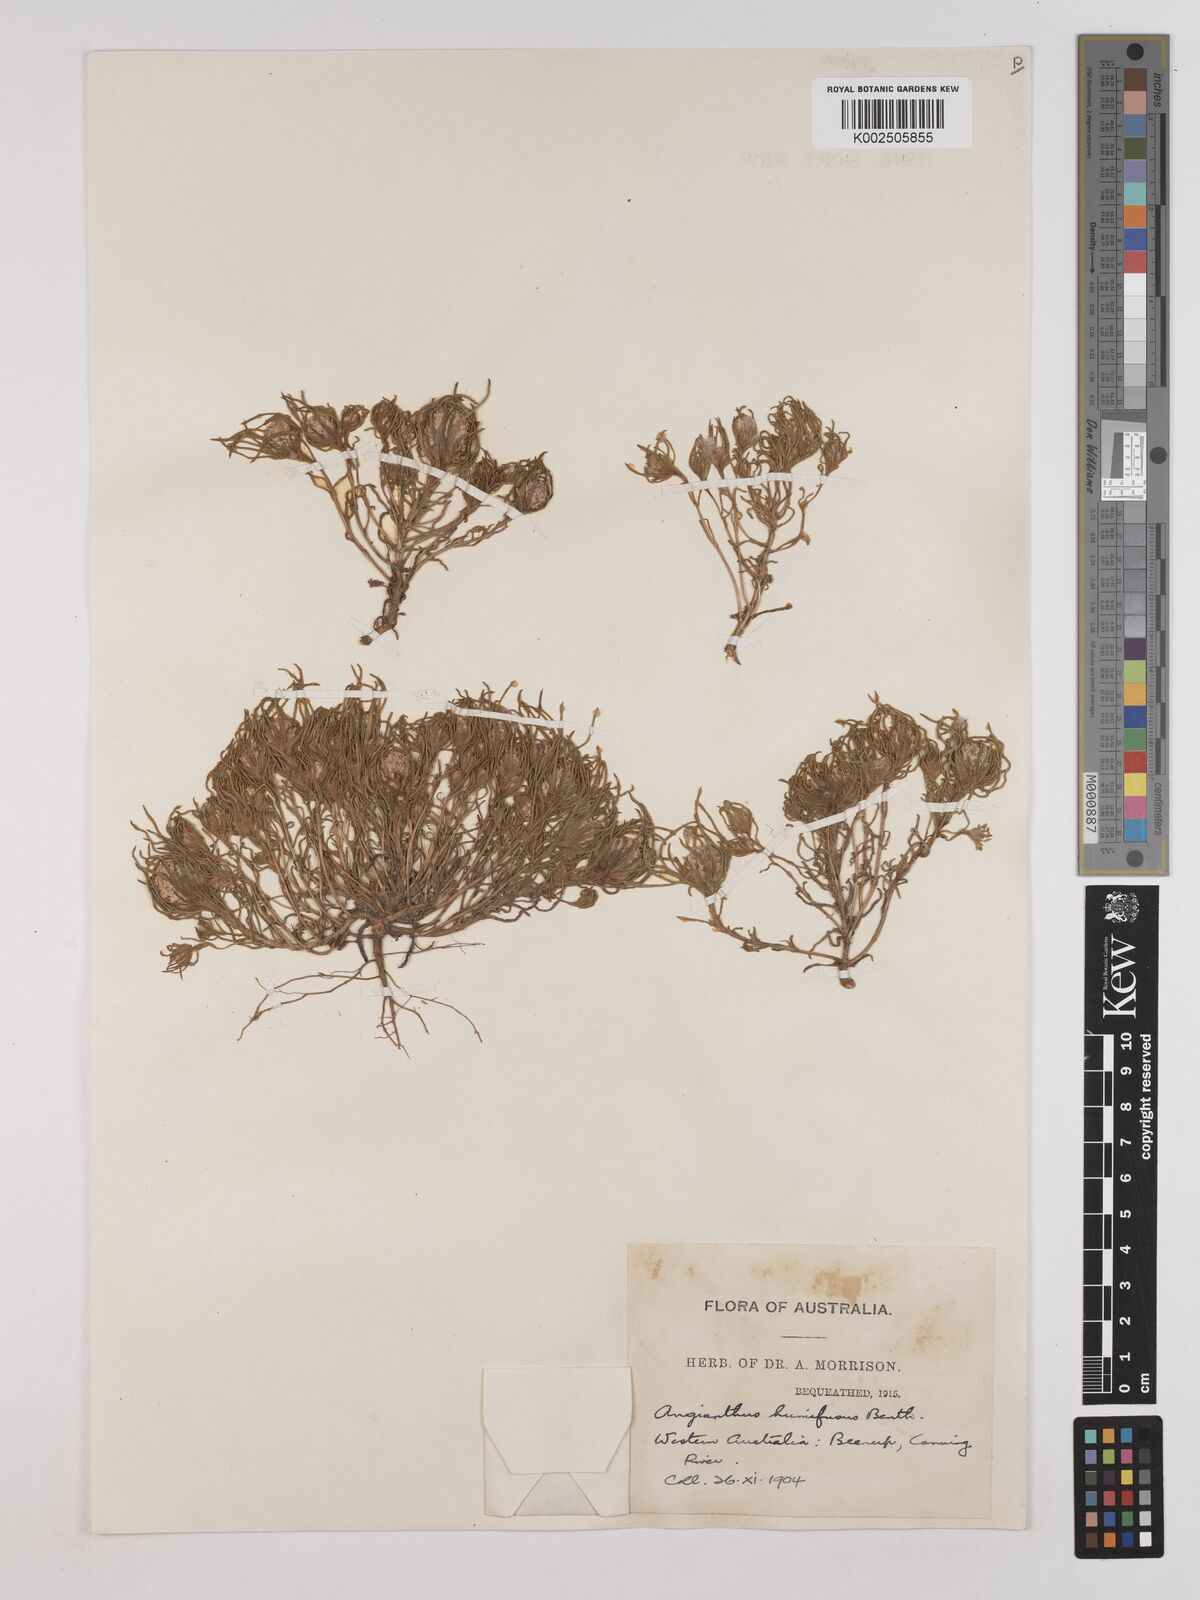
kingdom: Plantae
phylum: Tracheophyta
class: Magnoliopsida
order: Asterales
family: Asteraceae
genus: Siloxerus
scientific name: Siloxerus humifusus
